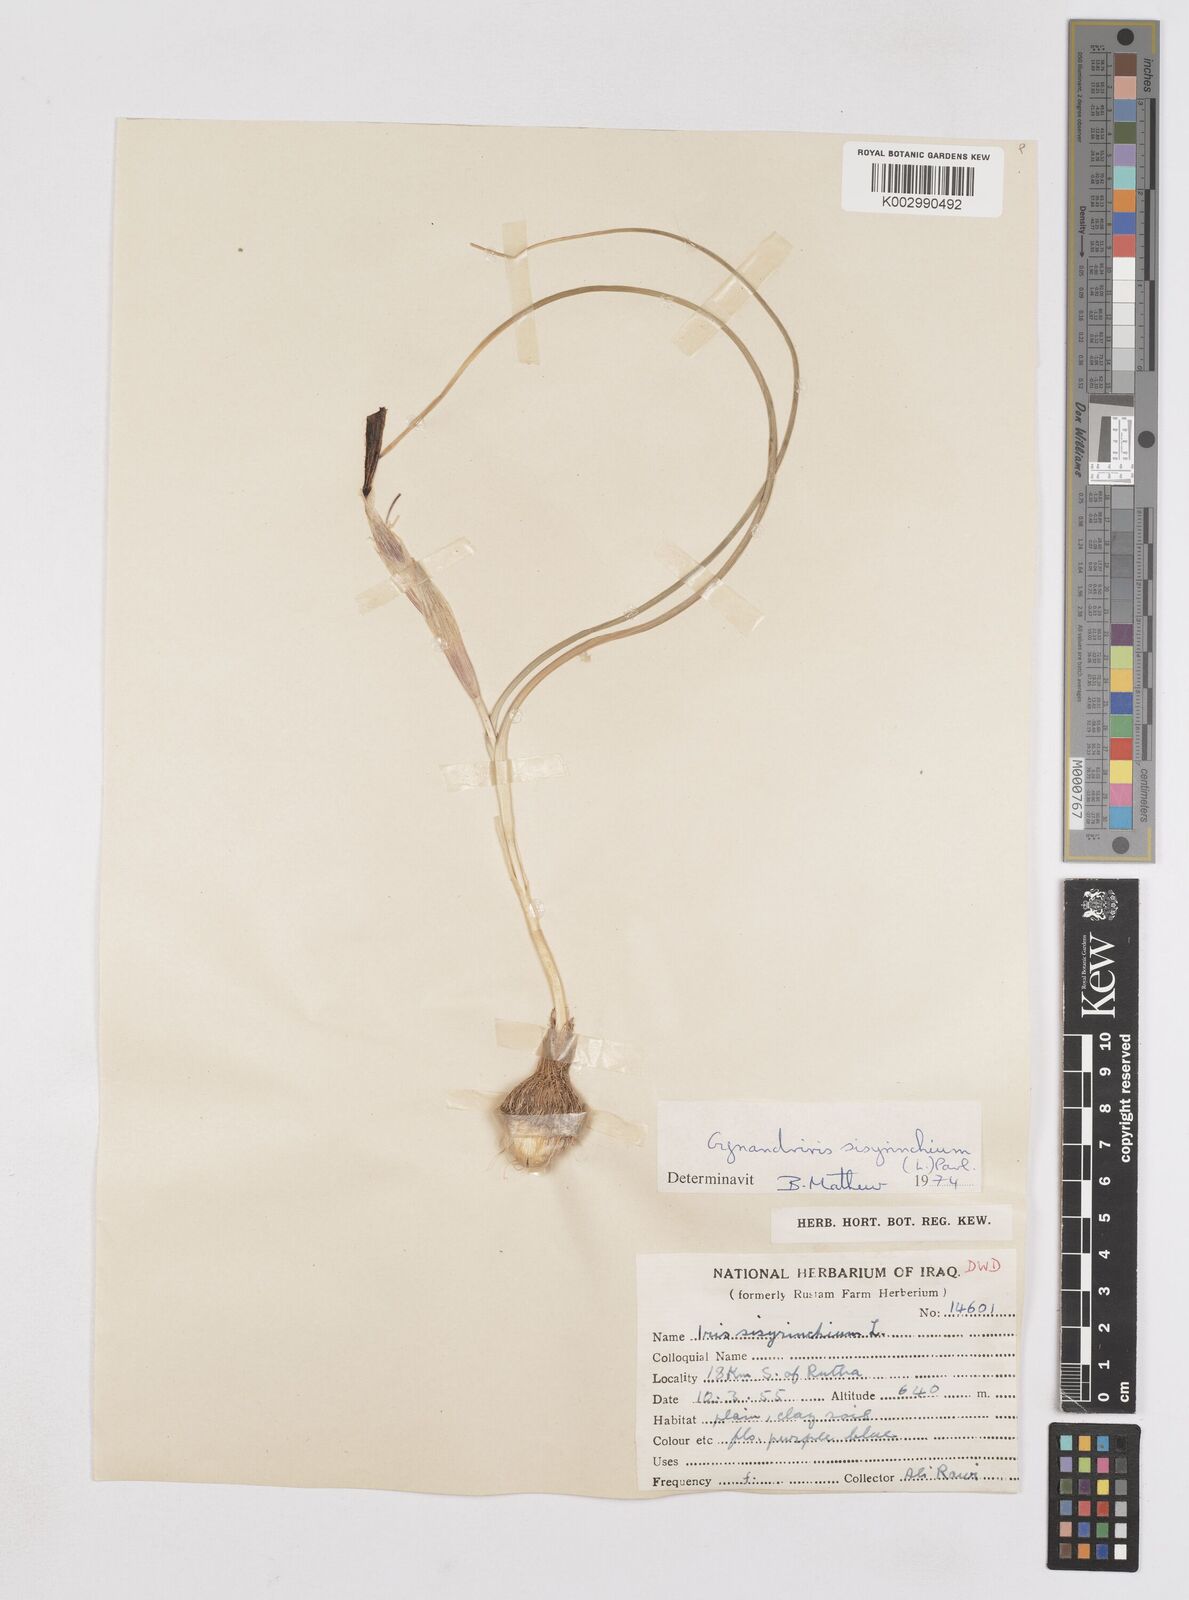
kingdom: Plantae
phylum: Tracheophyta
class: Liliopsida
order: Asparagales
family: Iridaceae
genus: Moraea
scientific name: Moraea sisyrinchium
